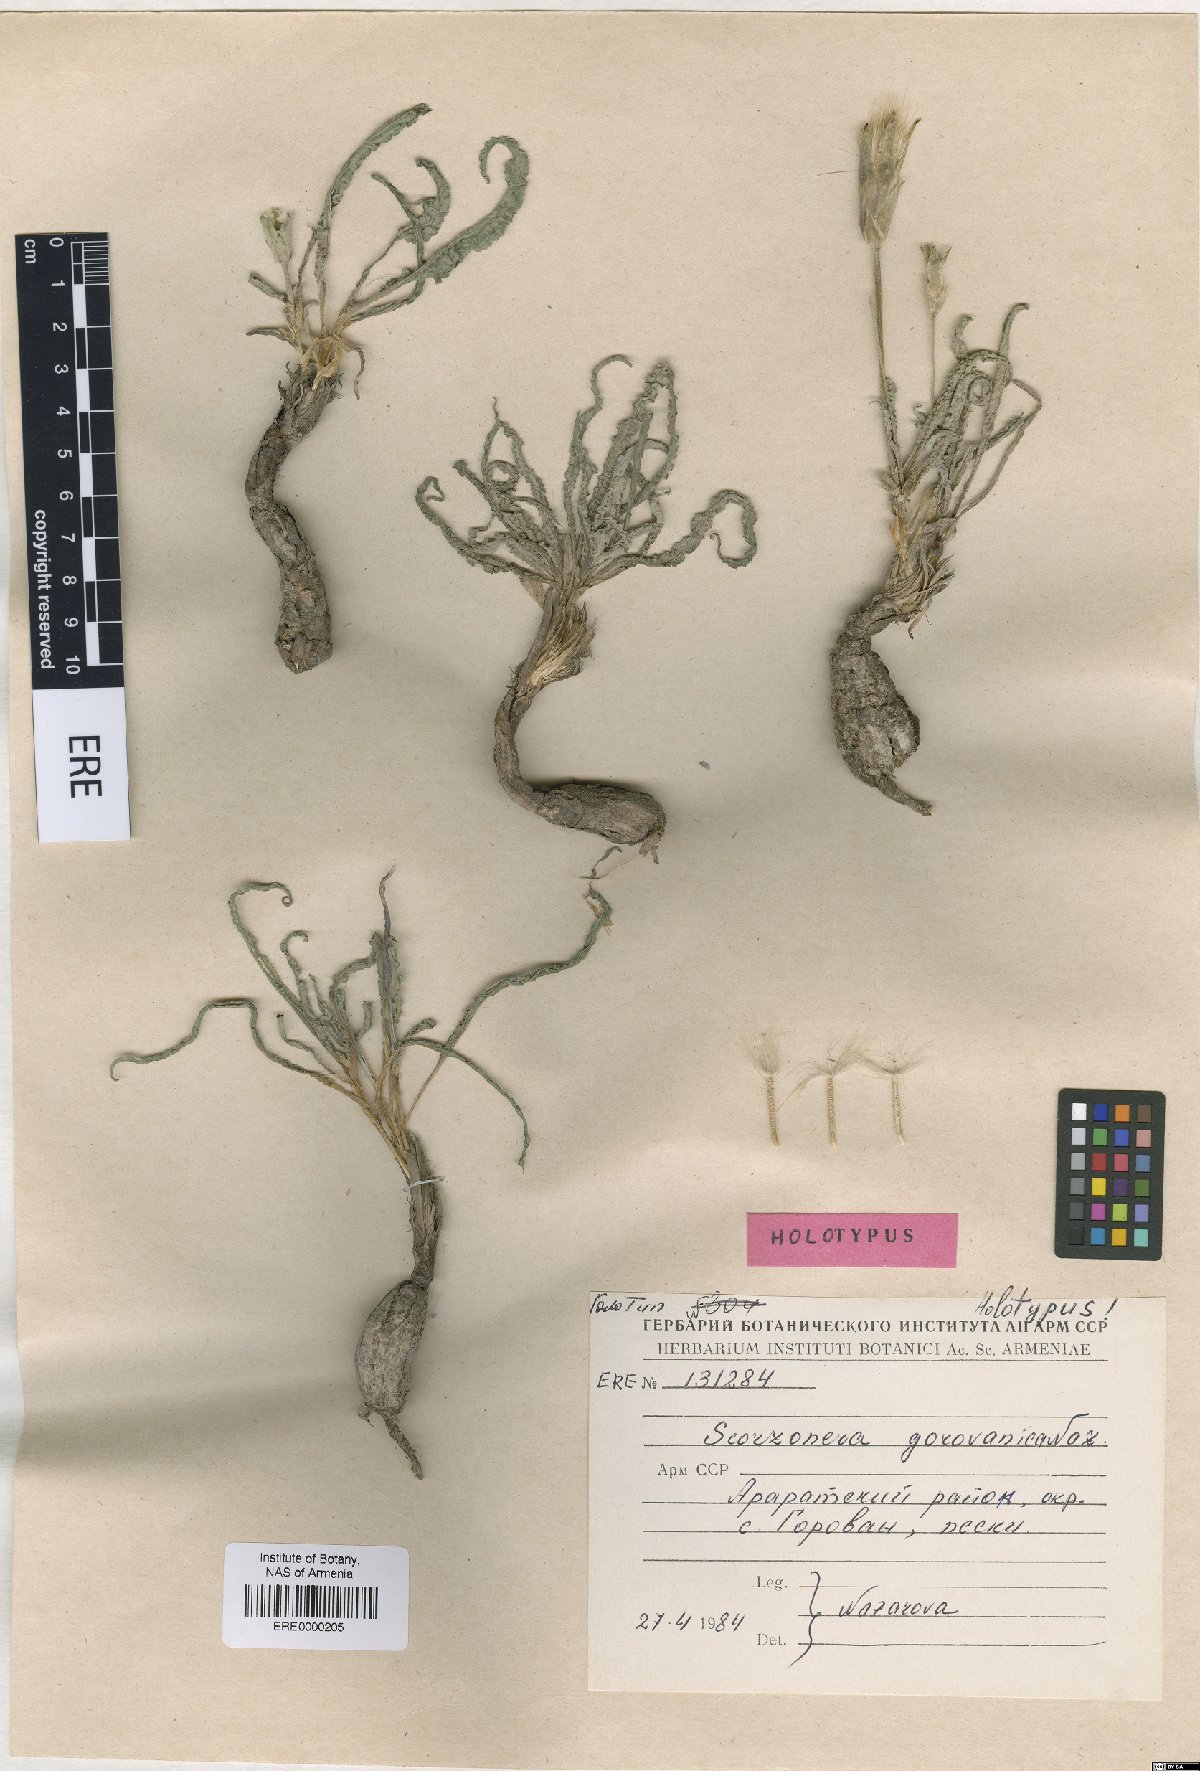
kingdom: Plantae
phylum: Tracheophyta
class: Magnoliopsida
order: Asterales
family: Asteraceae
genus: Scorzonera
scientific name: Scorzonera gorovanica
